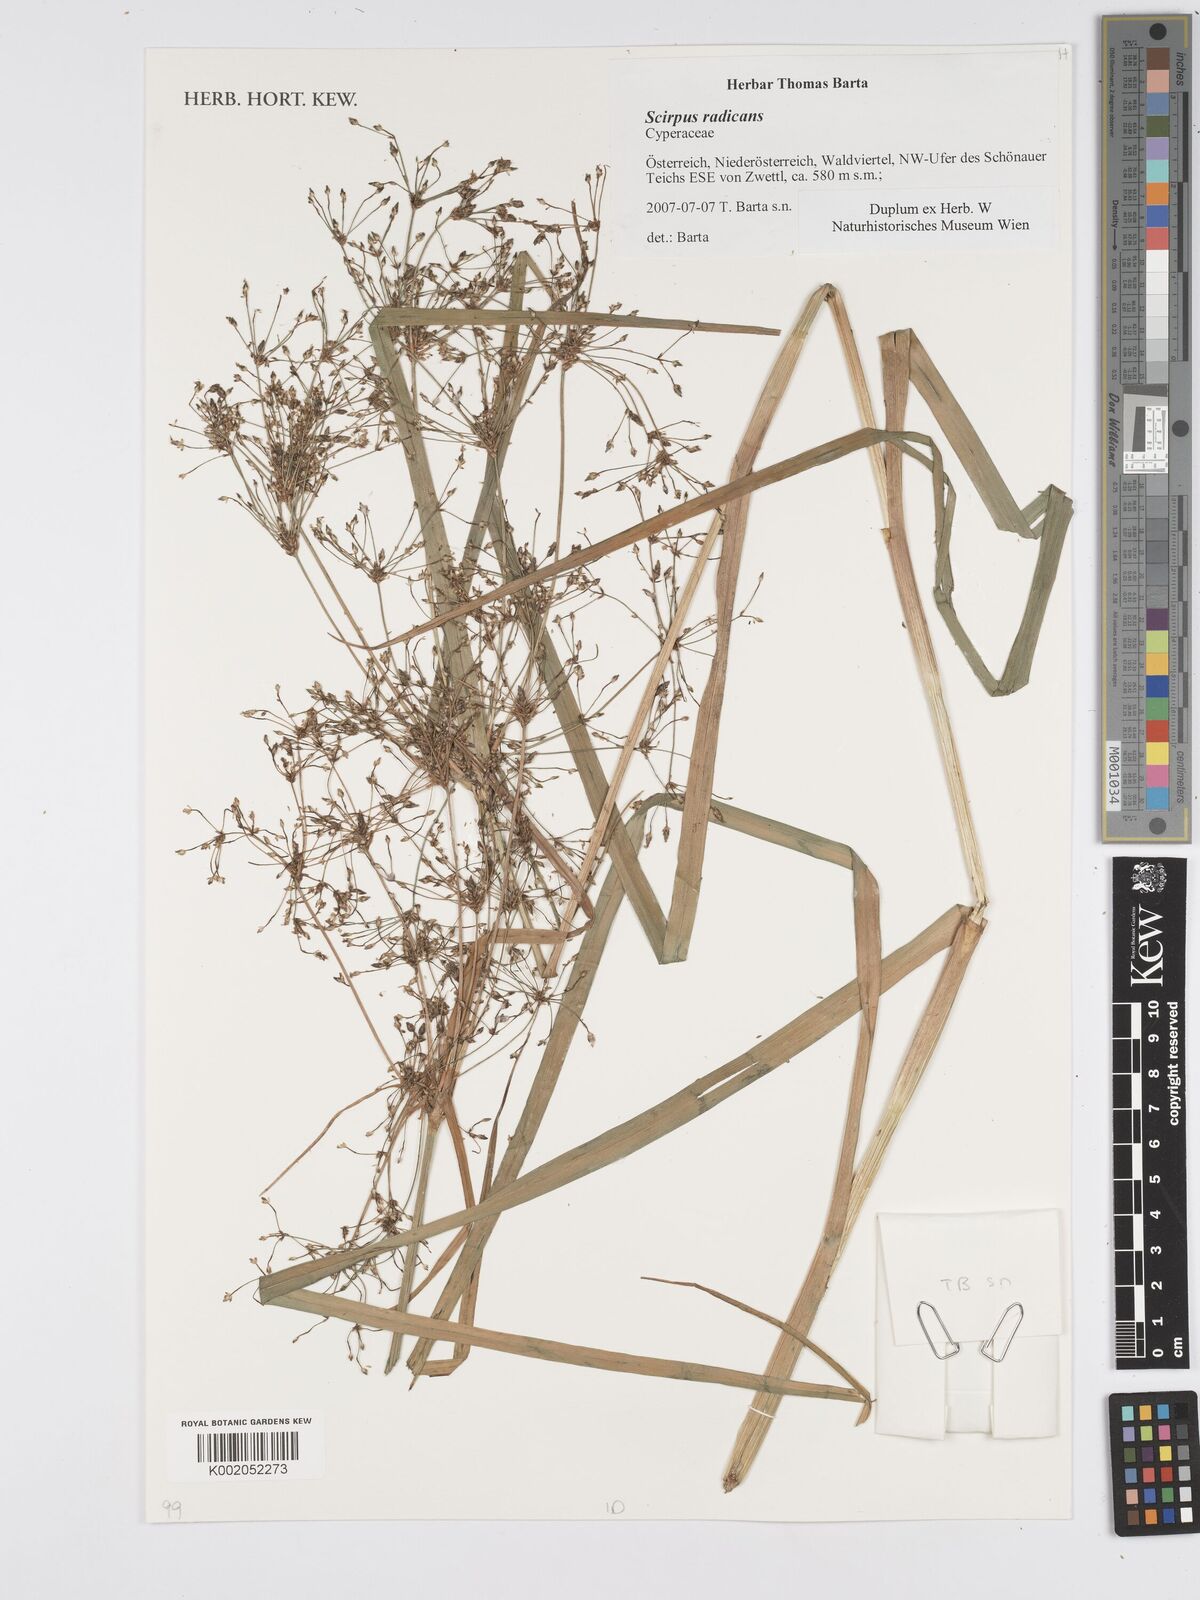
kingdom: Plantae
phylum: Tracheophyta
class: Liliopsida
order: Poales
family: Cyperaceae
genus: Scirpus
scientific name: Scirpus radicans
